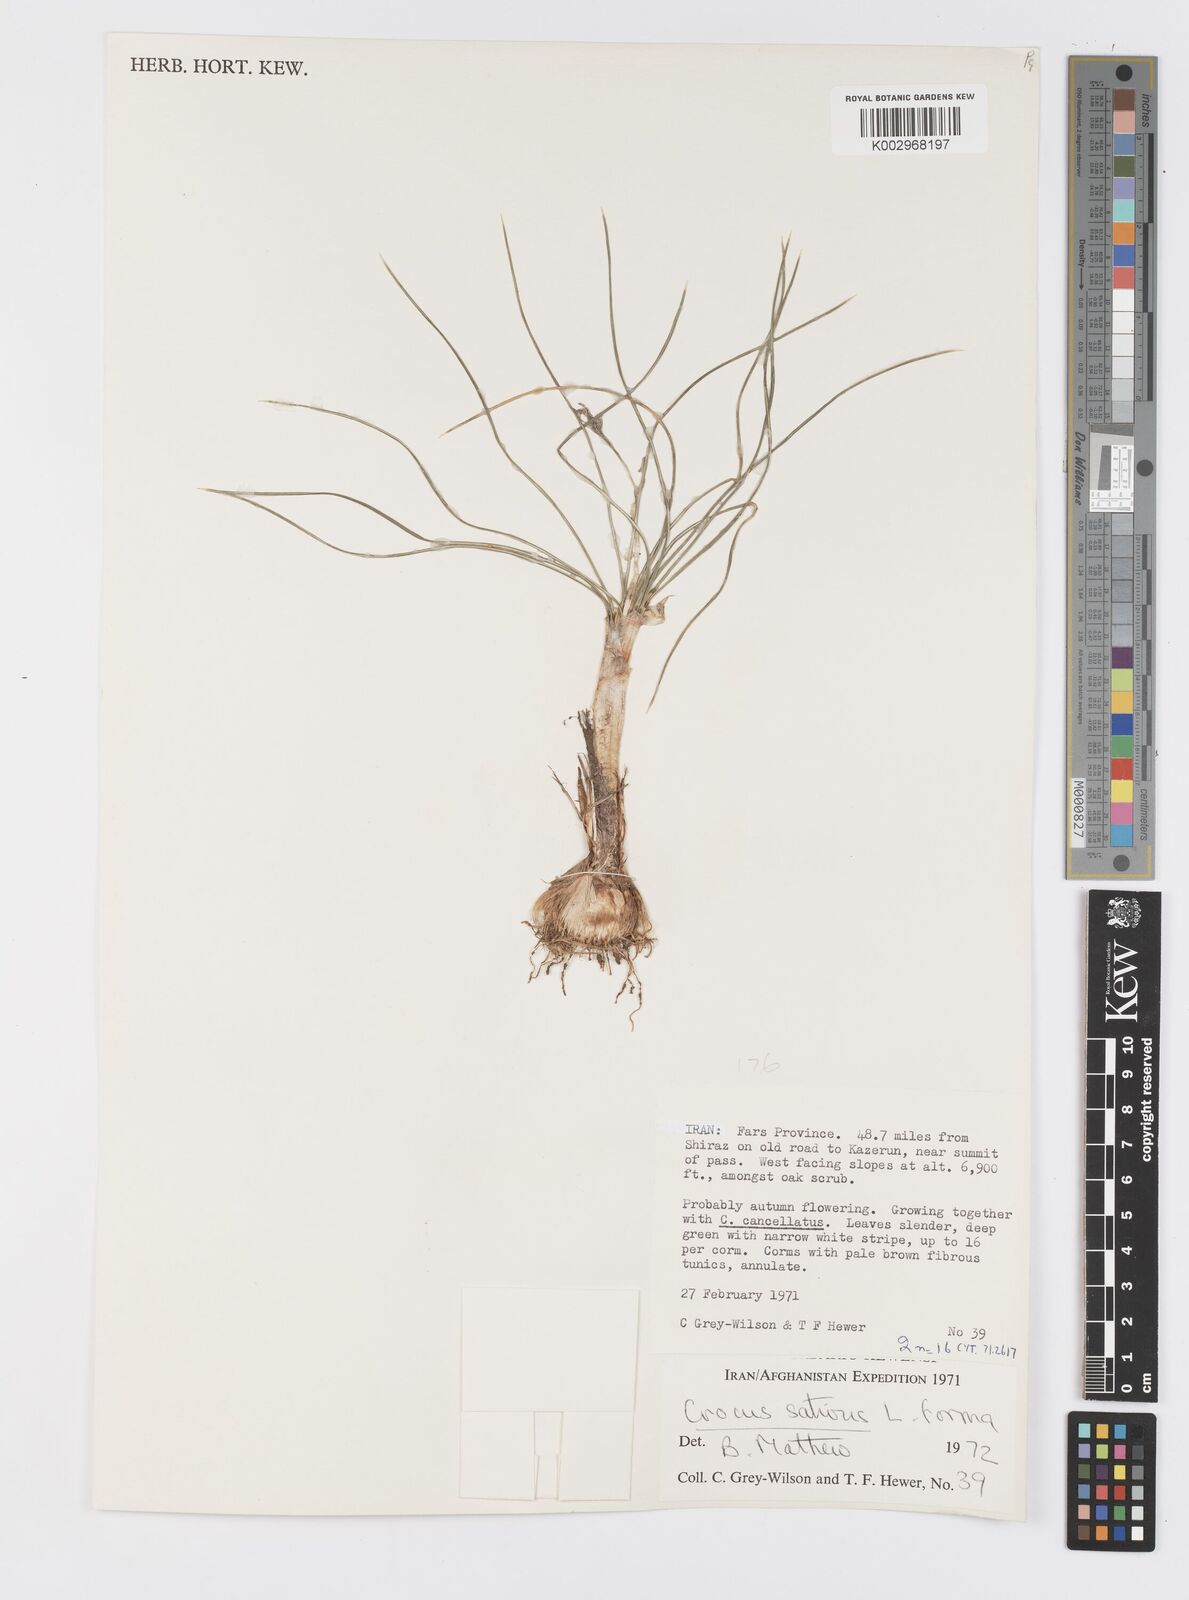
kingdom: Plantae
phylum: Tracheophyta
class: Liliopsida
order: Asparagales
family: Iridaceae
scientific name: Iridaceae
